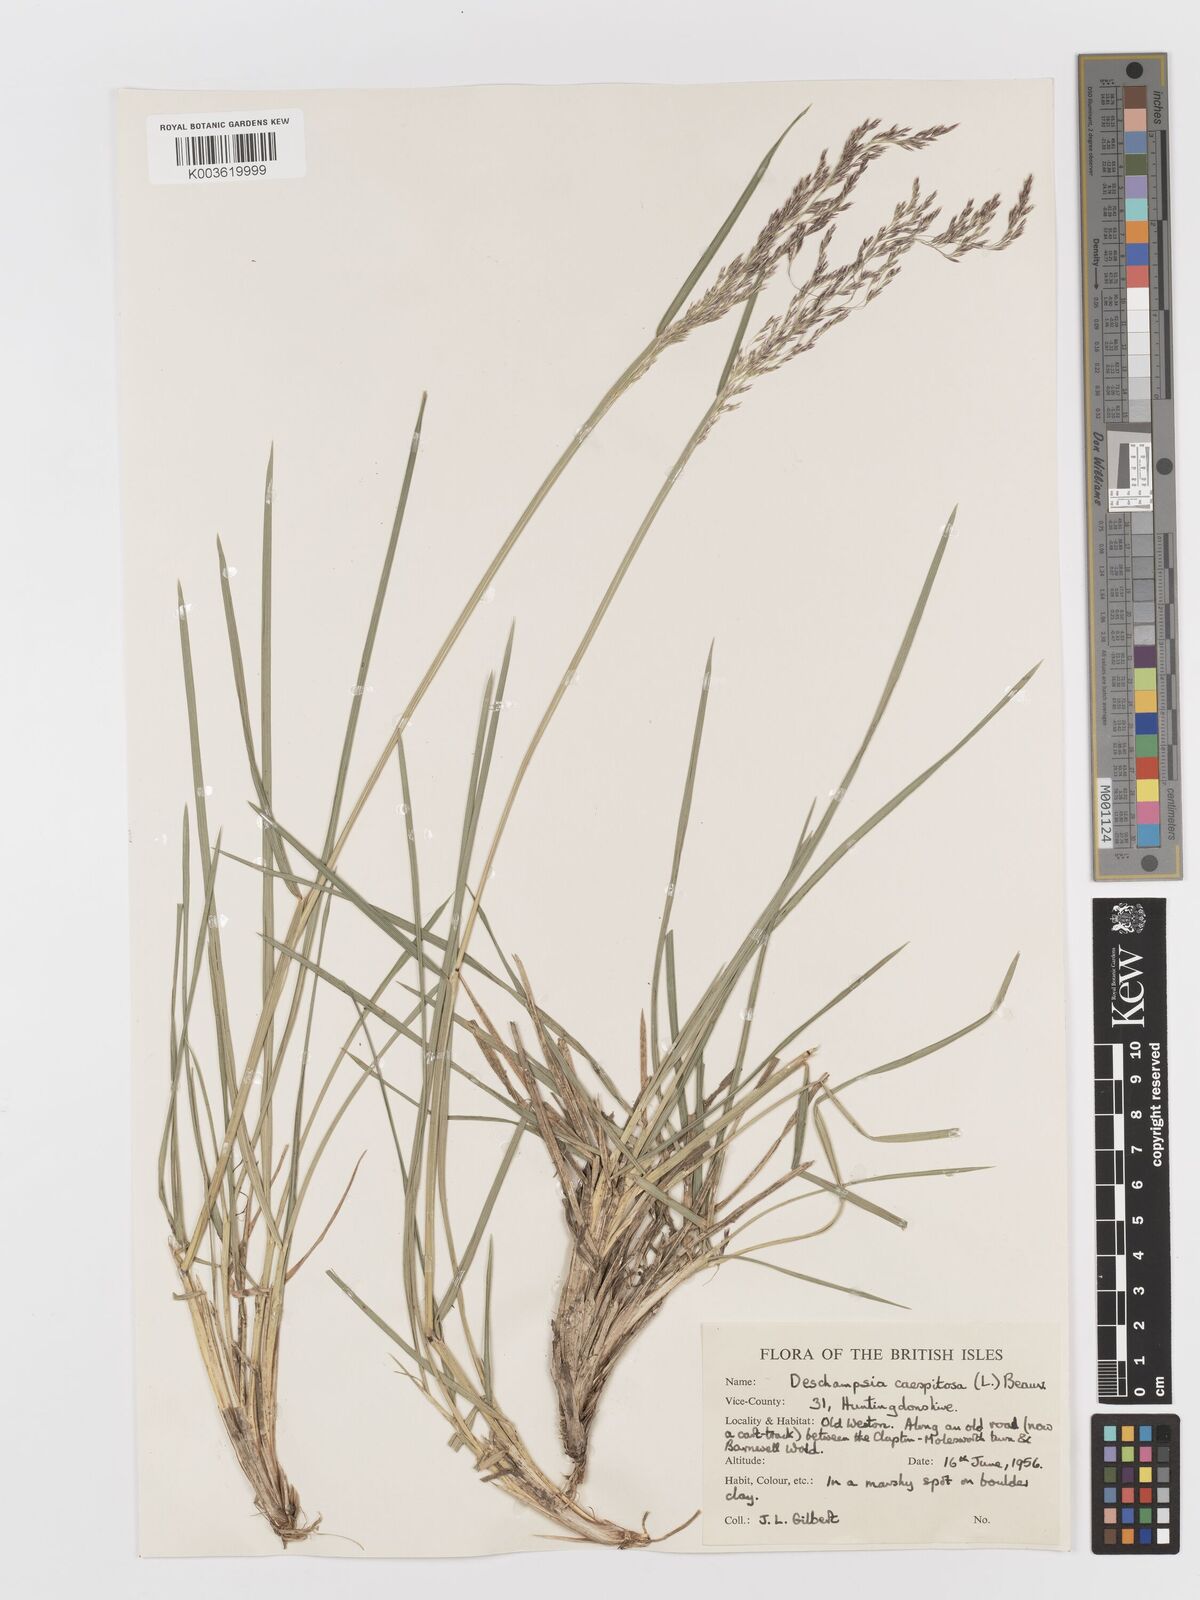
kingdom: Plantae
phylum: Tracheophyta
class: Liliopsida
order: Poales
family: Poaceae
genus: Deschampsia
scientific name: Deschampsia cespitosa
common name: Tufted hair-grass
